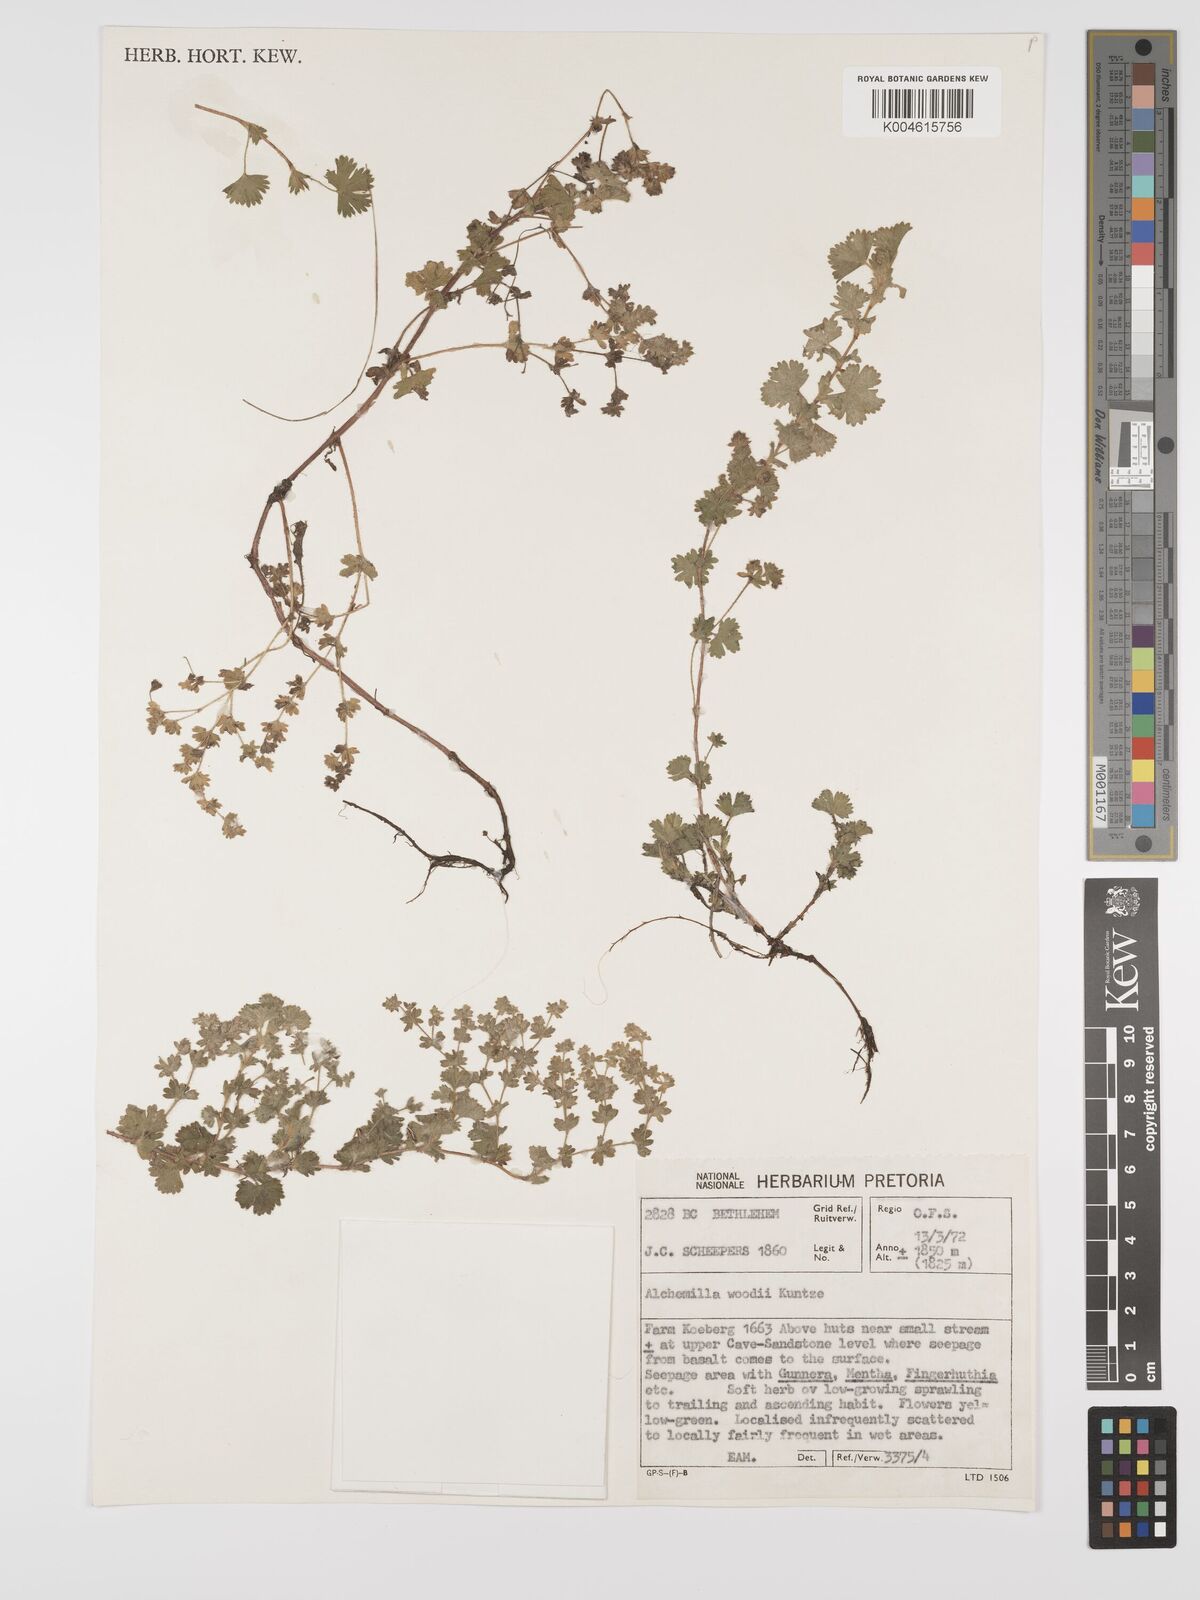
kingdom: Plantae
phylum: Tracheophyta
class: Magnoliopsida
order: Rosales
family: Rosaceae
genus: Alchemilla
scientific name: Alchemilla woodii
